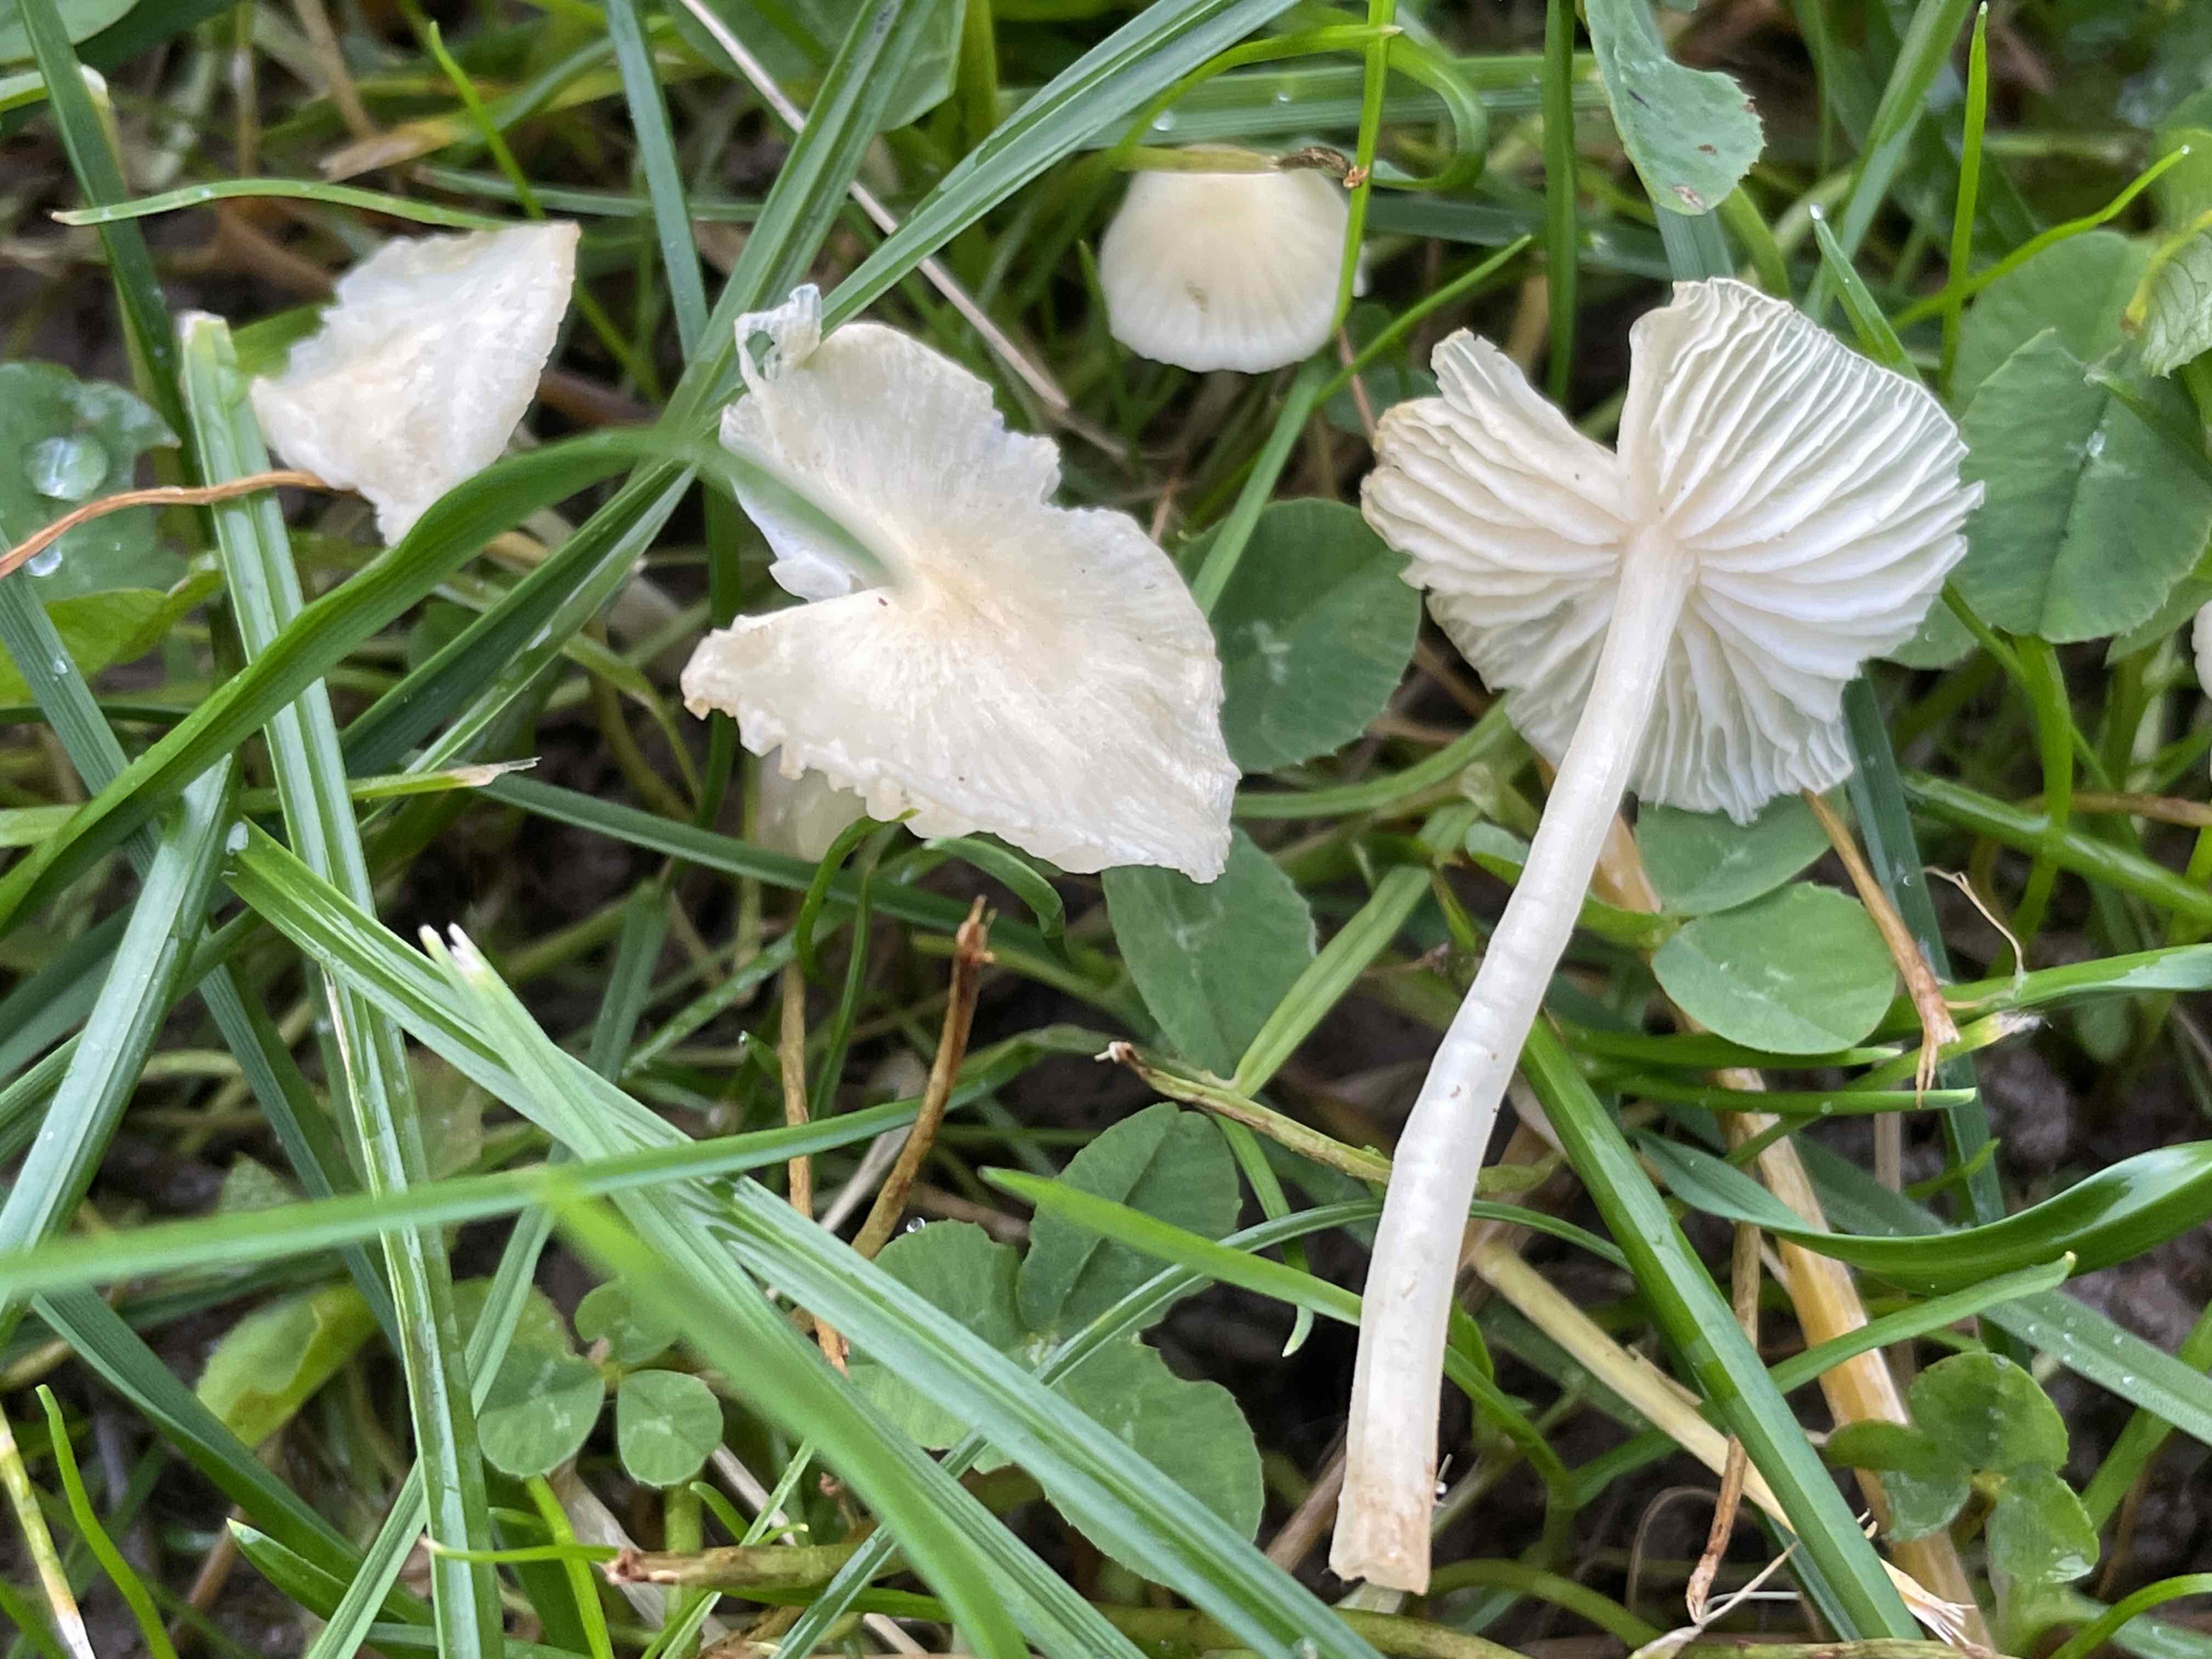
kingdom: Fungi
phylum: Basidiomycota
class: Agaricomycetes
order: Agaricales
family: Entolomataceae
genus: Entoloma
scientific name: Entoloma sericellum
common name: silkehvid rødblad
